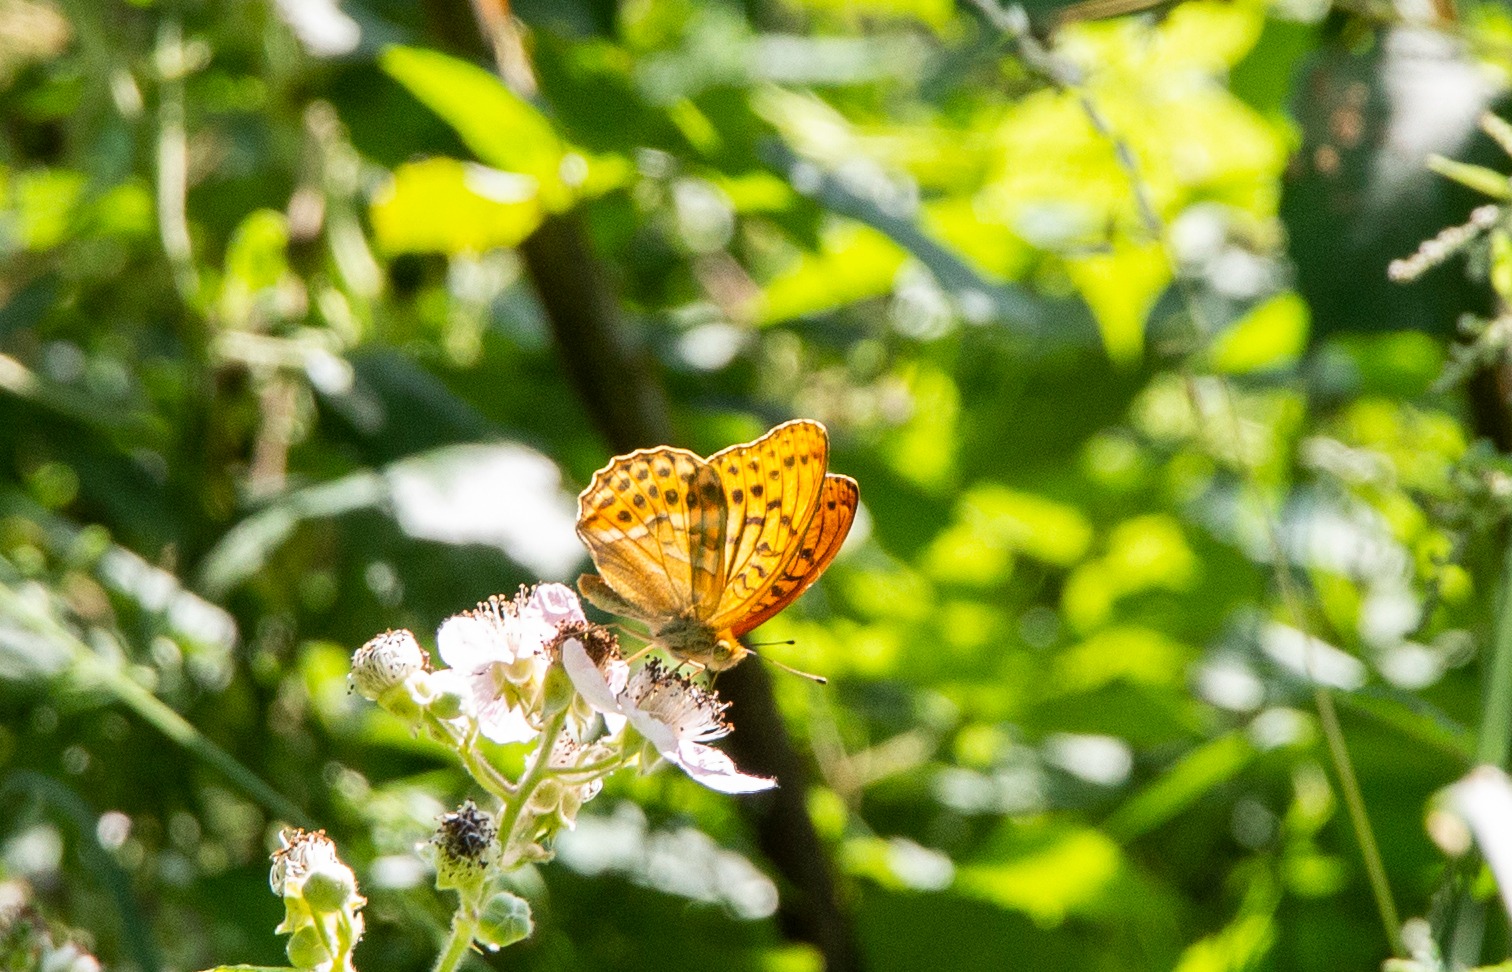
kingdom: Animalia
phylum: Arthropoda
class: Insecta
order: Lepidoptera
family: Nymphalidae
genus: Argynnis
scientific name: Argynnis paphia
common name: Kejserkåbe
